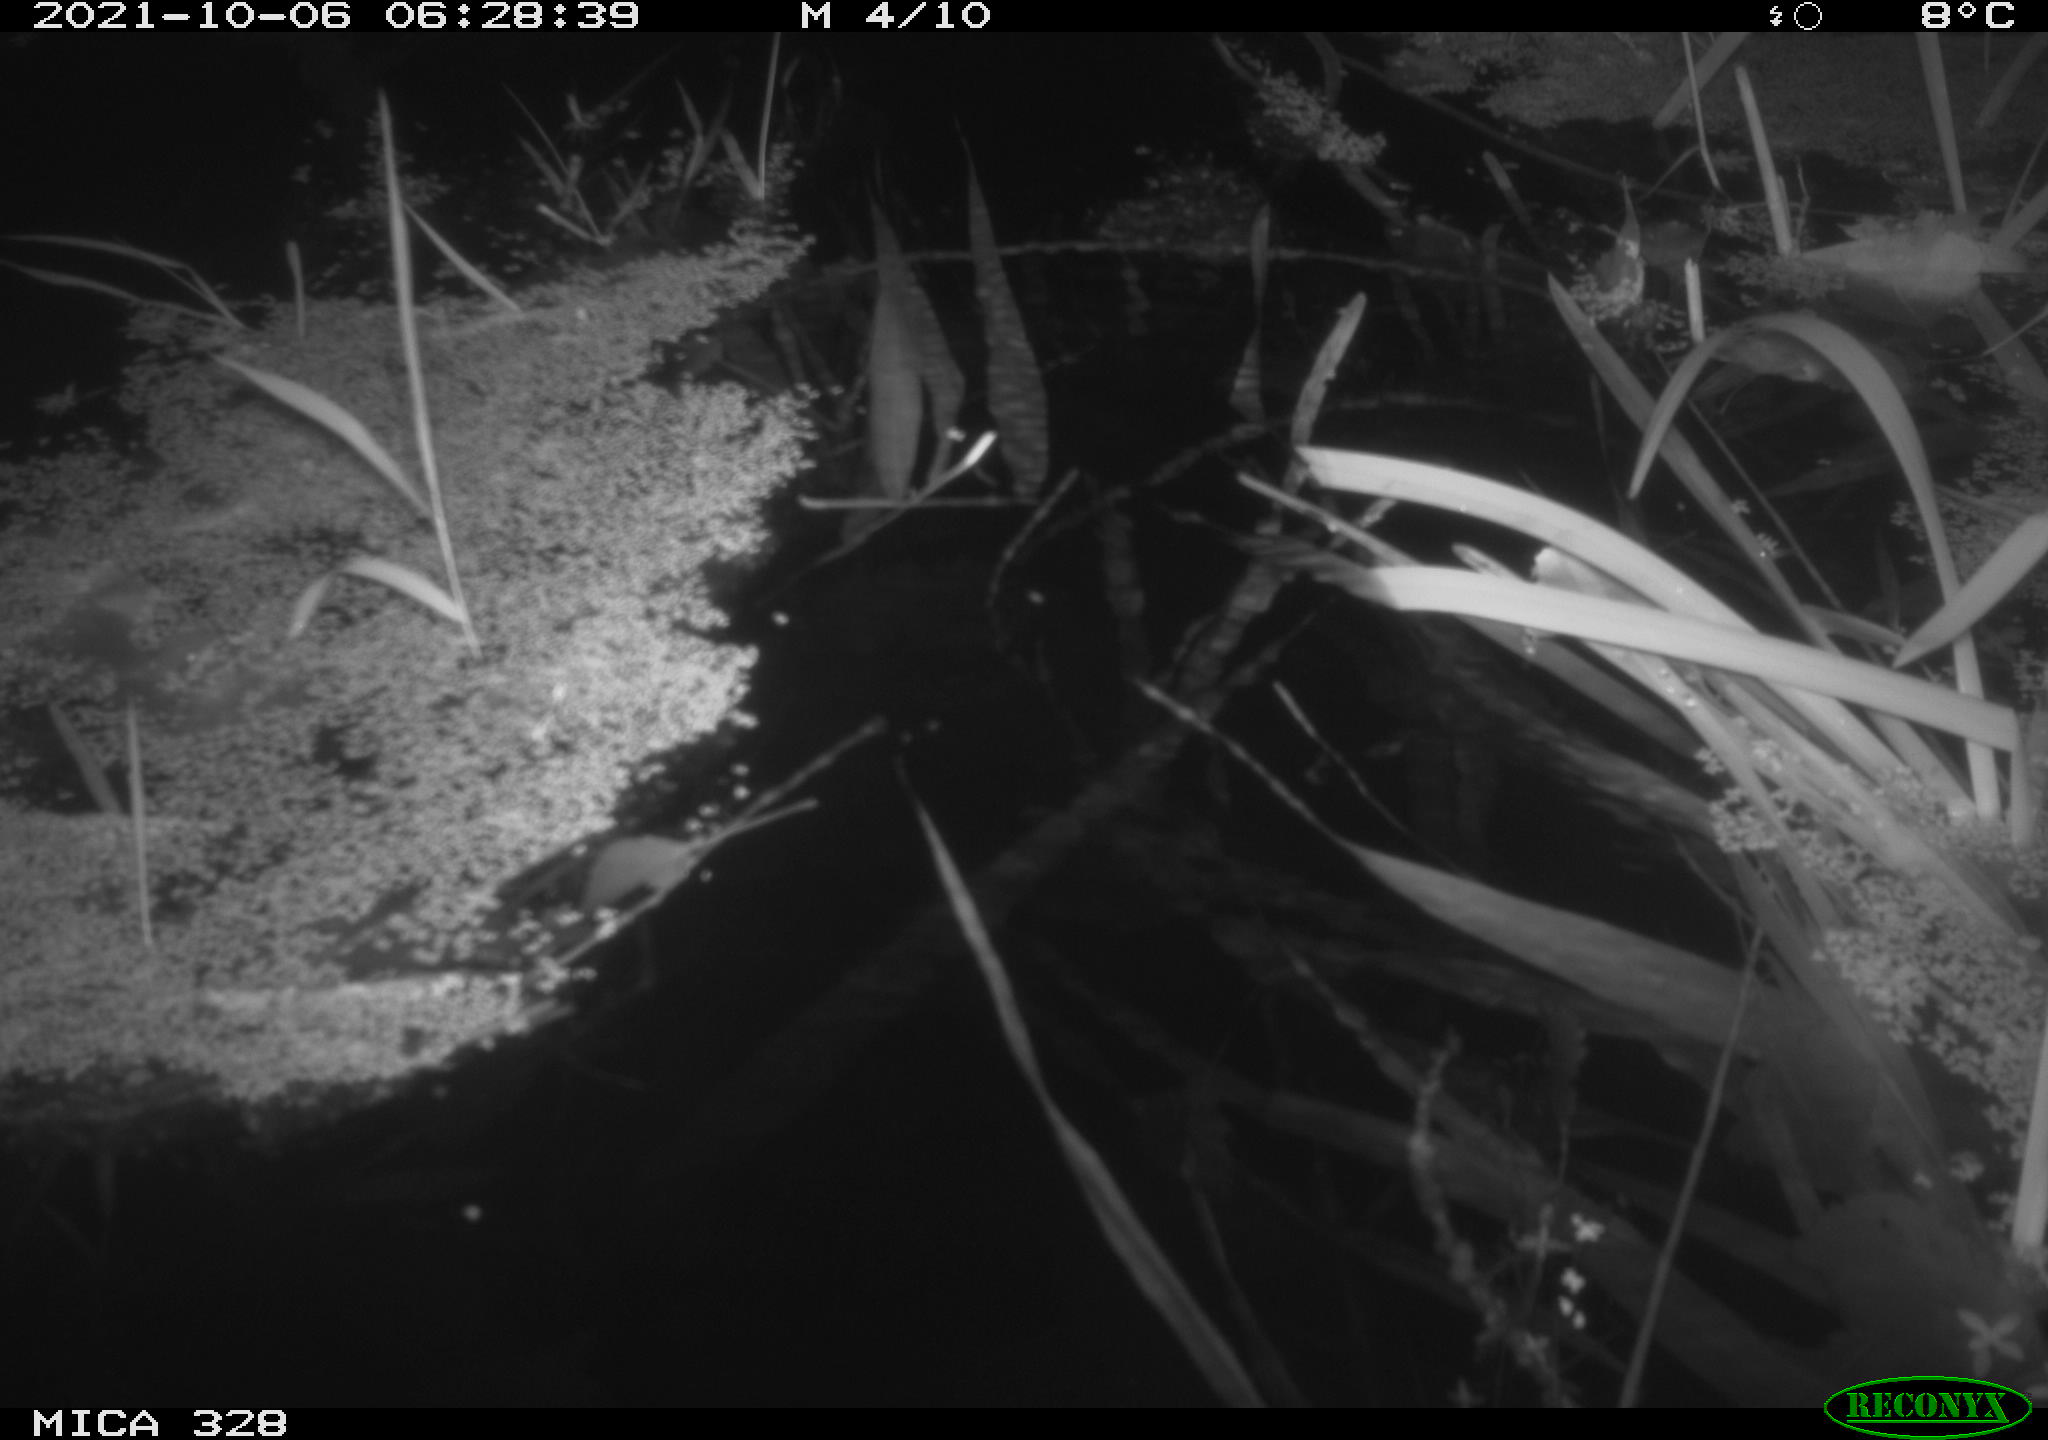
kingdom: Animalia
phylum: Chordata
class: Mammalia
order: Rodentia
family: Cricetidae
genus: Ondatra
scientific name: Ondatra zibethicus
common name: Muskrat
